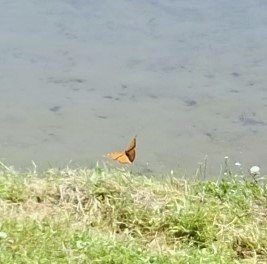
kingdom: Animalia
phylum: Arthropoda
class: Insecta
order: Lepidoptera
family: Nymphalidae
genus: Danaus
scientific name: Danaus plexippus
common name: Monarch
